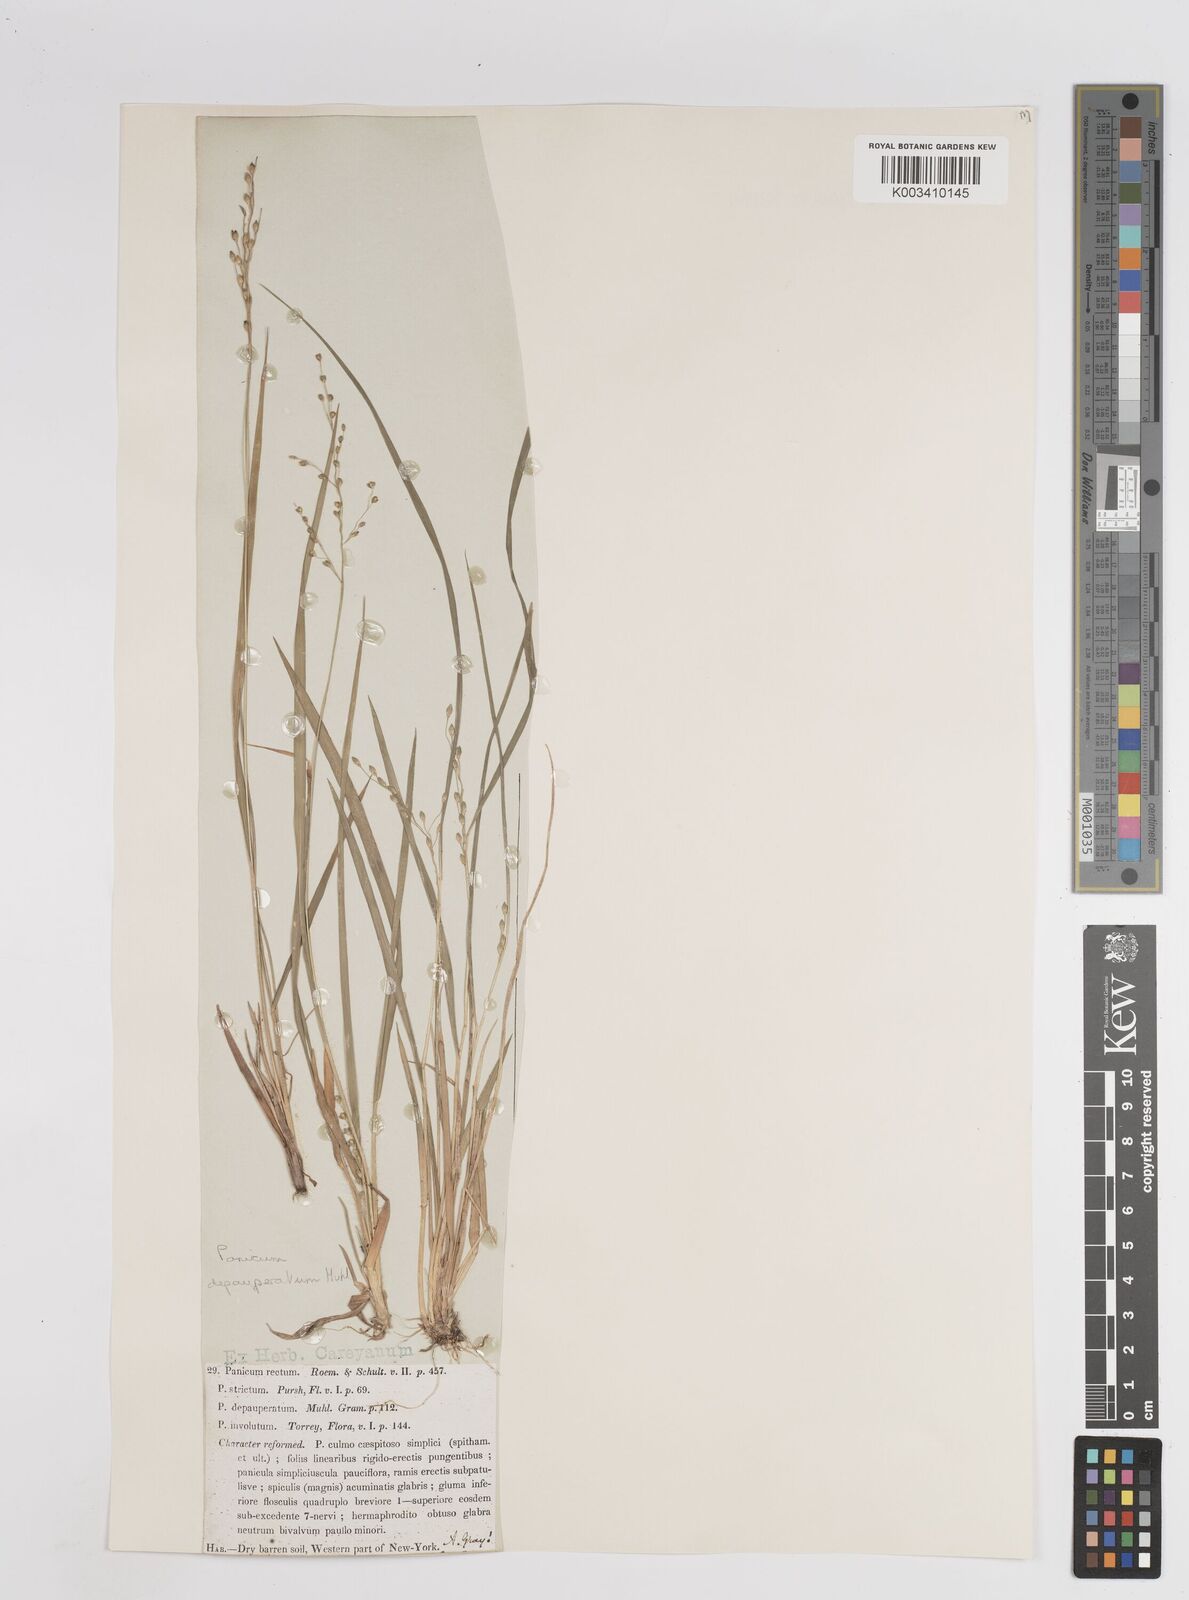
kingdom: Plantae
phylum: Tracheophyta
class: Liliopsida
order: Poales
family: Poaceae
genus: Dichanthelium
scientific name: Dichanthelium depauperatum
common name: Depauperate panicgrass
